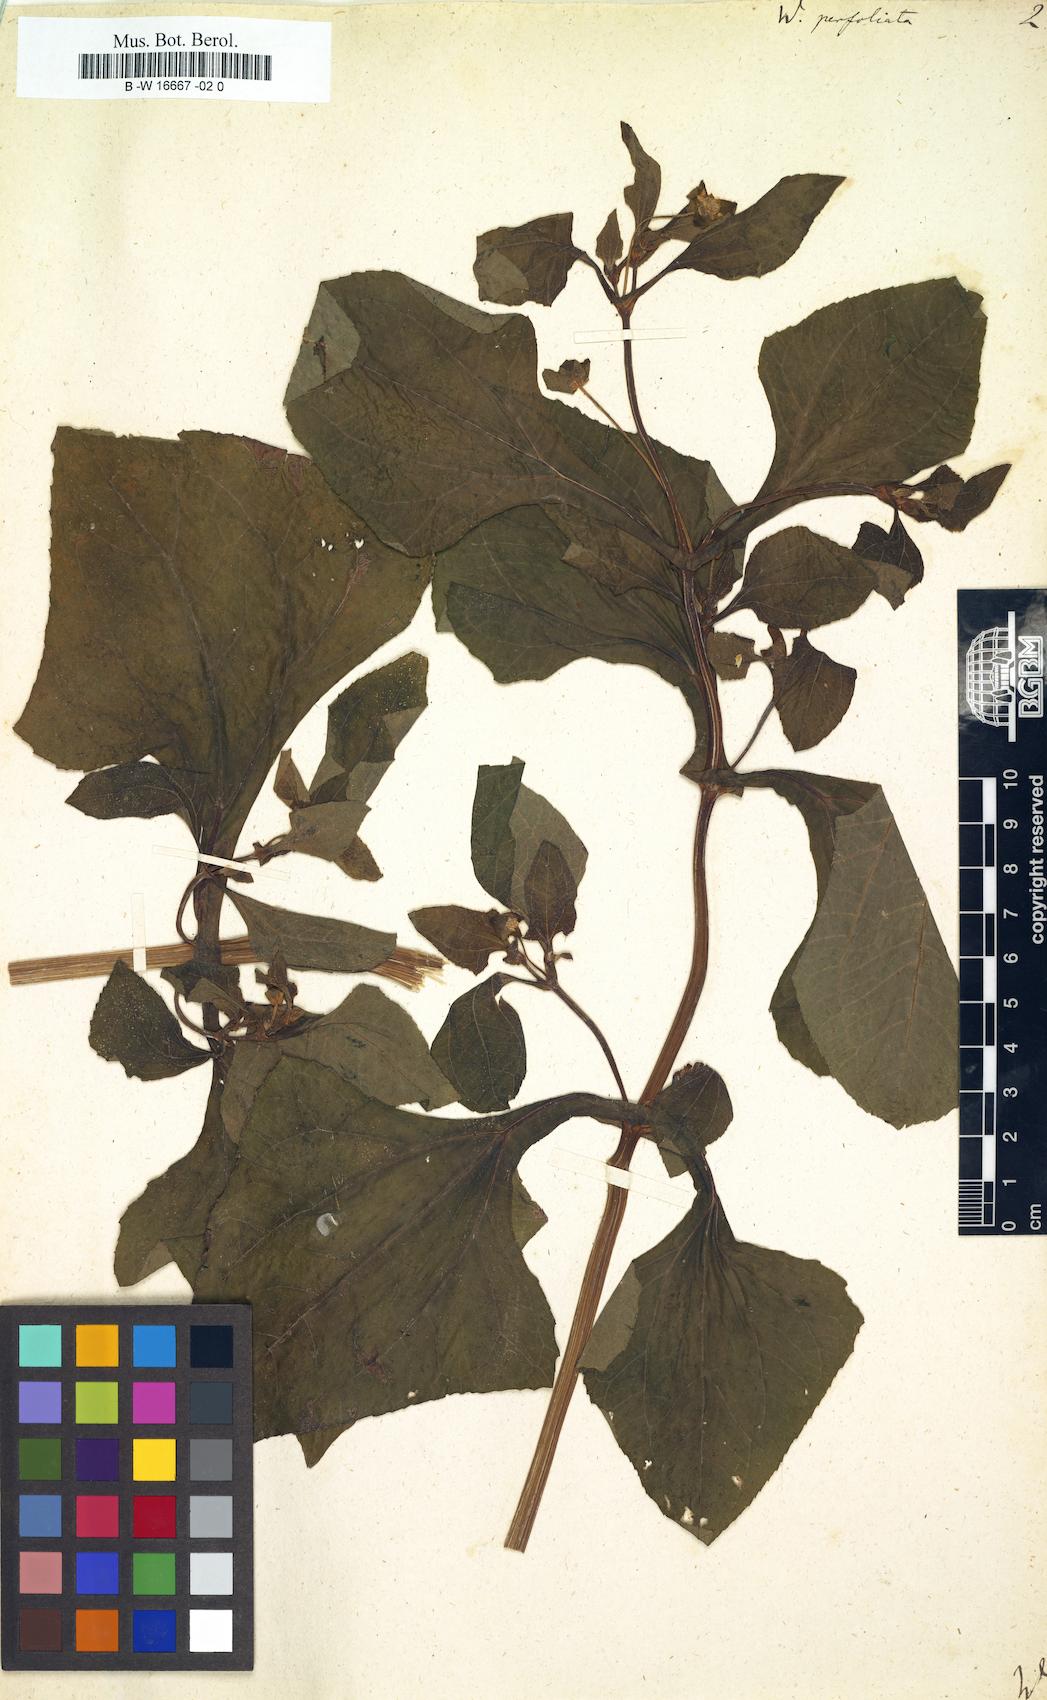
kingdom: Plantae
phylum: Tracheophyta
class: Magnoliopsida
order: Asterales
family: Asteraceae
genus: Melampodium
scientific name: Melampodium perfoliatum
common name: Perfoliate blackfoot
